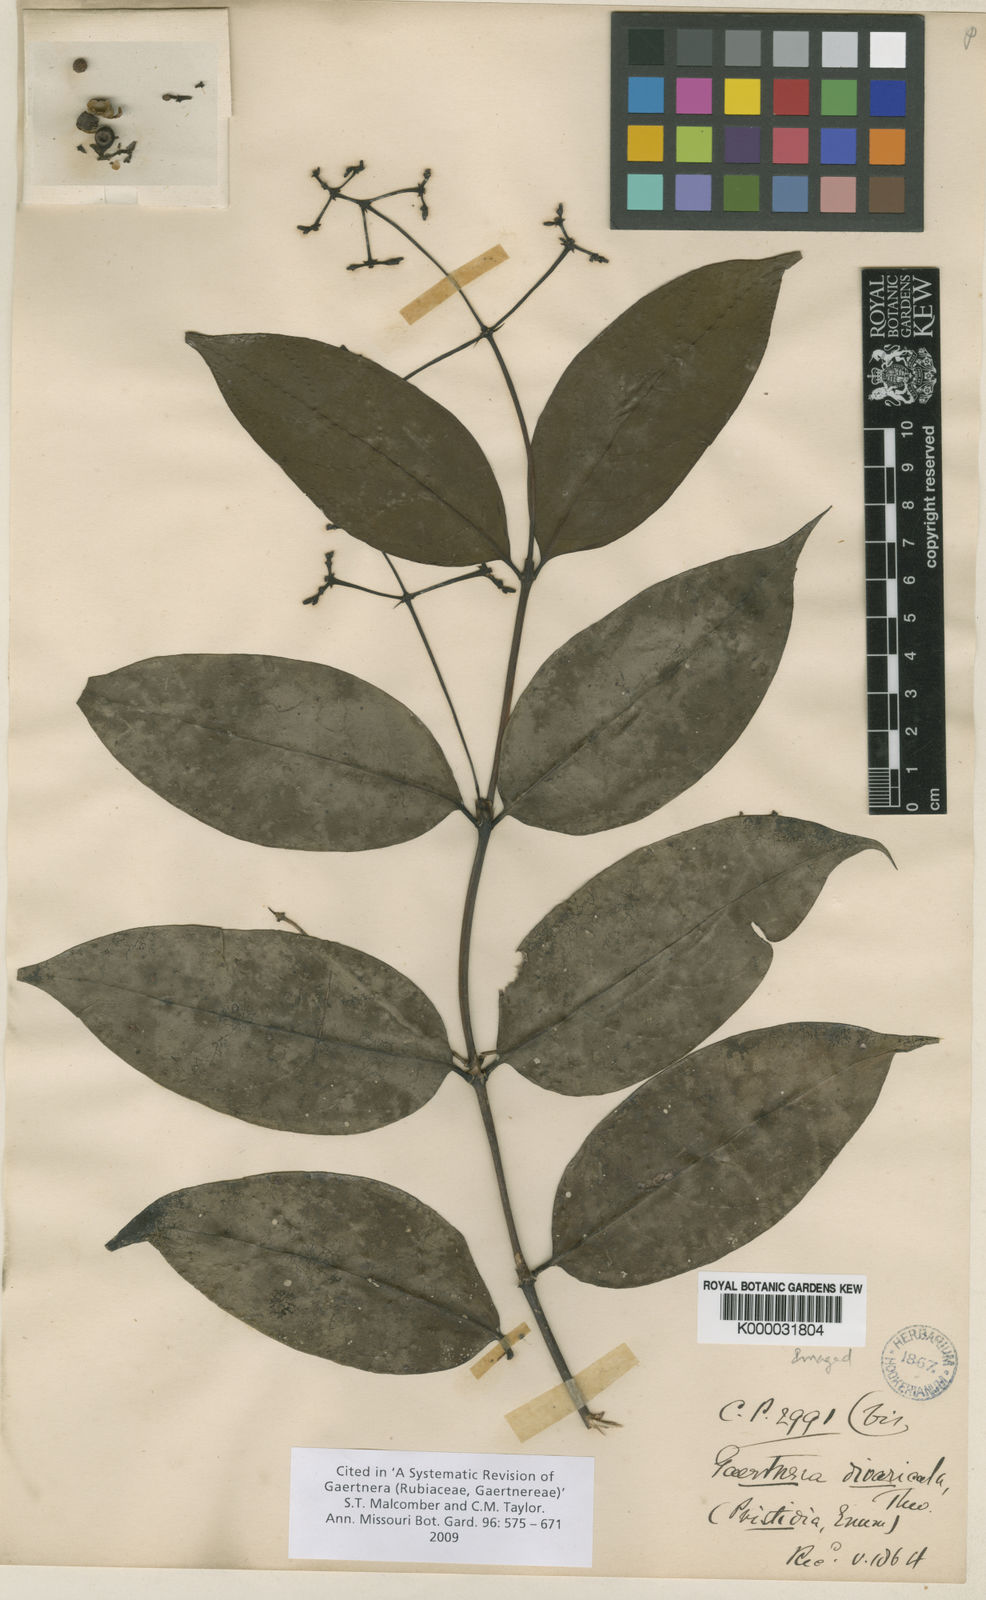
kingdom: Plantae
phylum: Tracheophyta
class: Magnoliopsida
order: Gentianales
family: Rubiaceae
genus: Gaertnera
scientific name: Gaertnera divaricata
